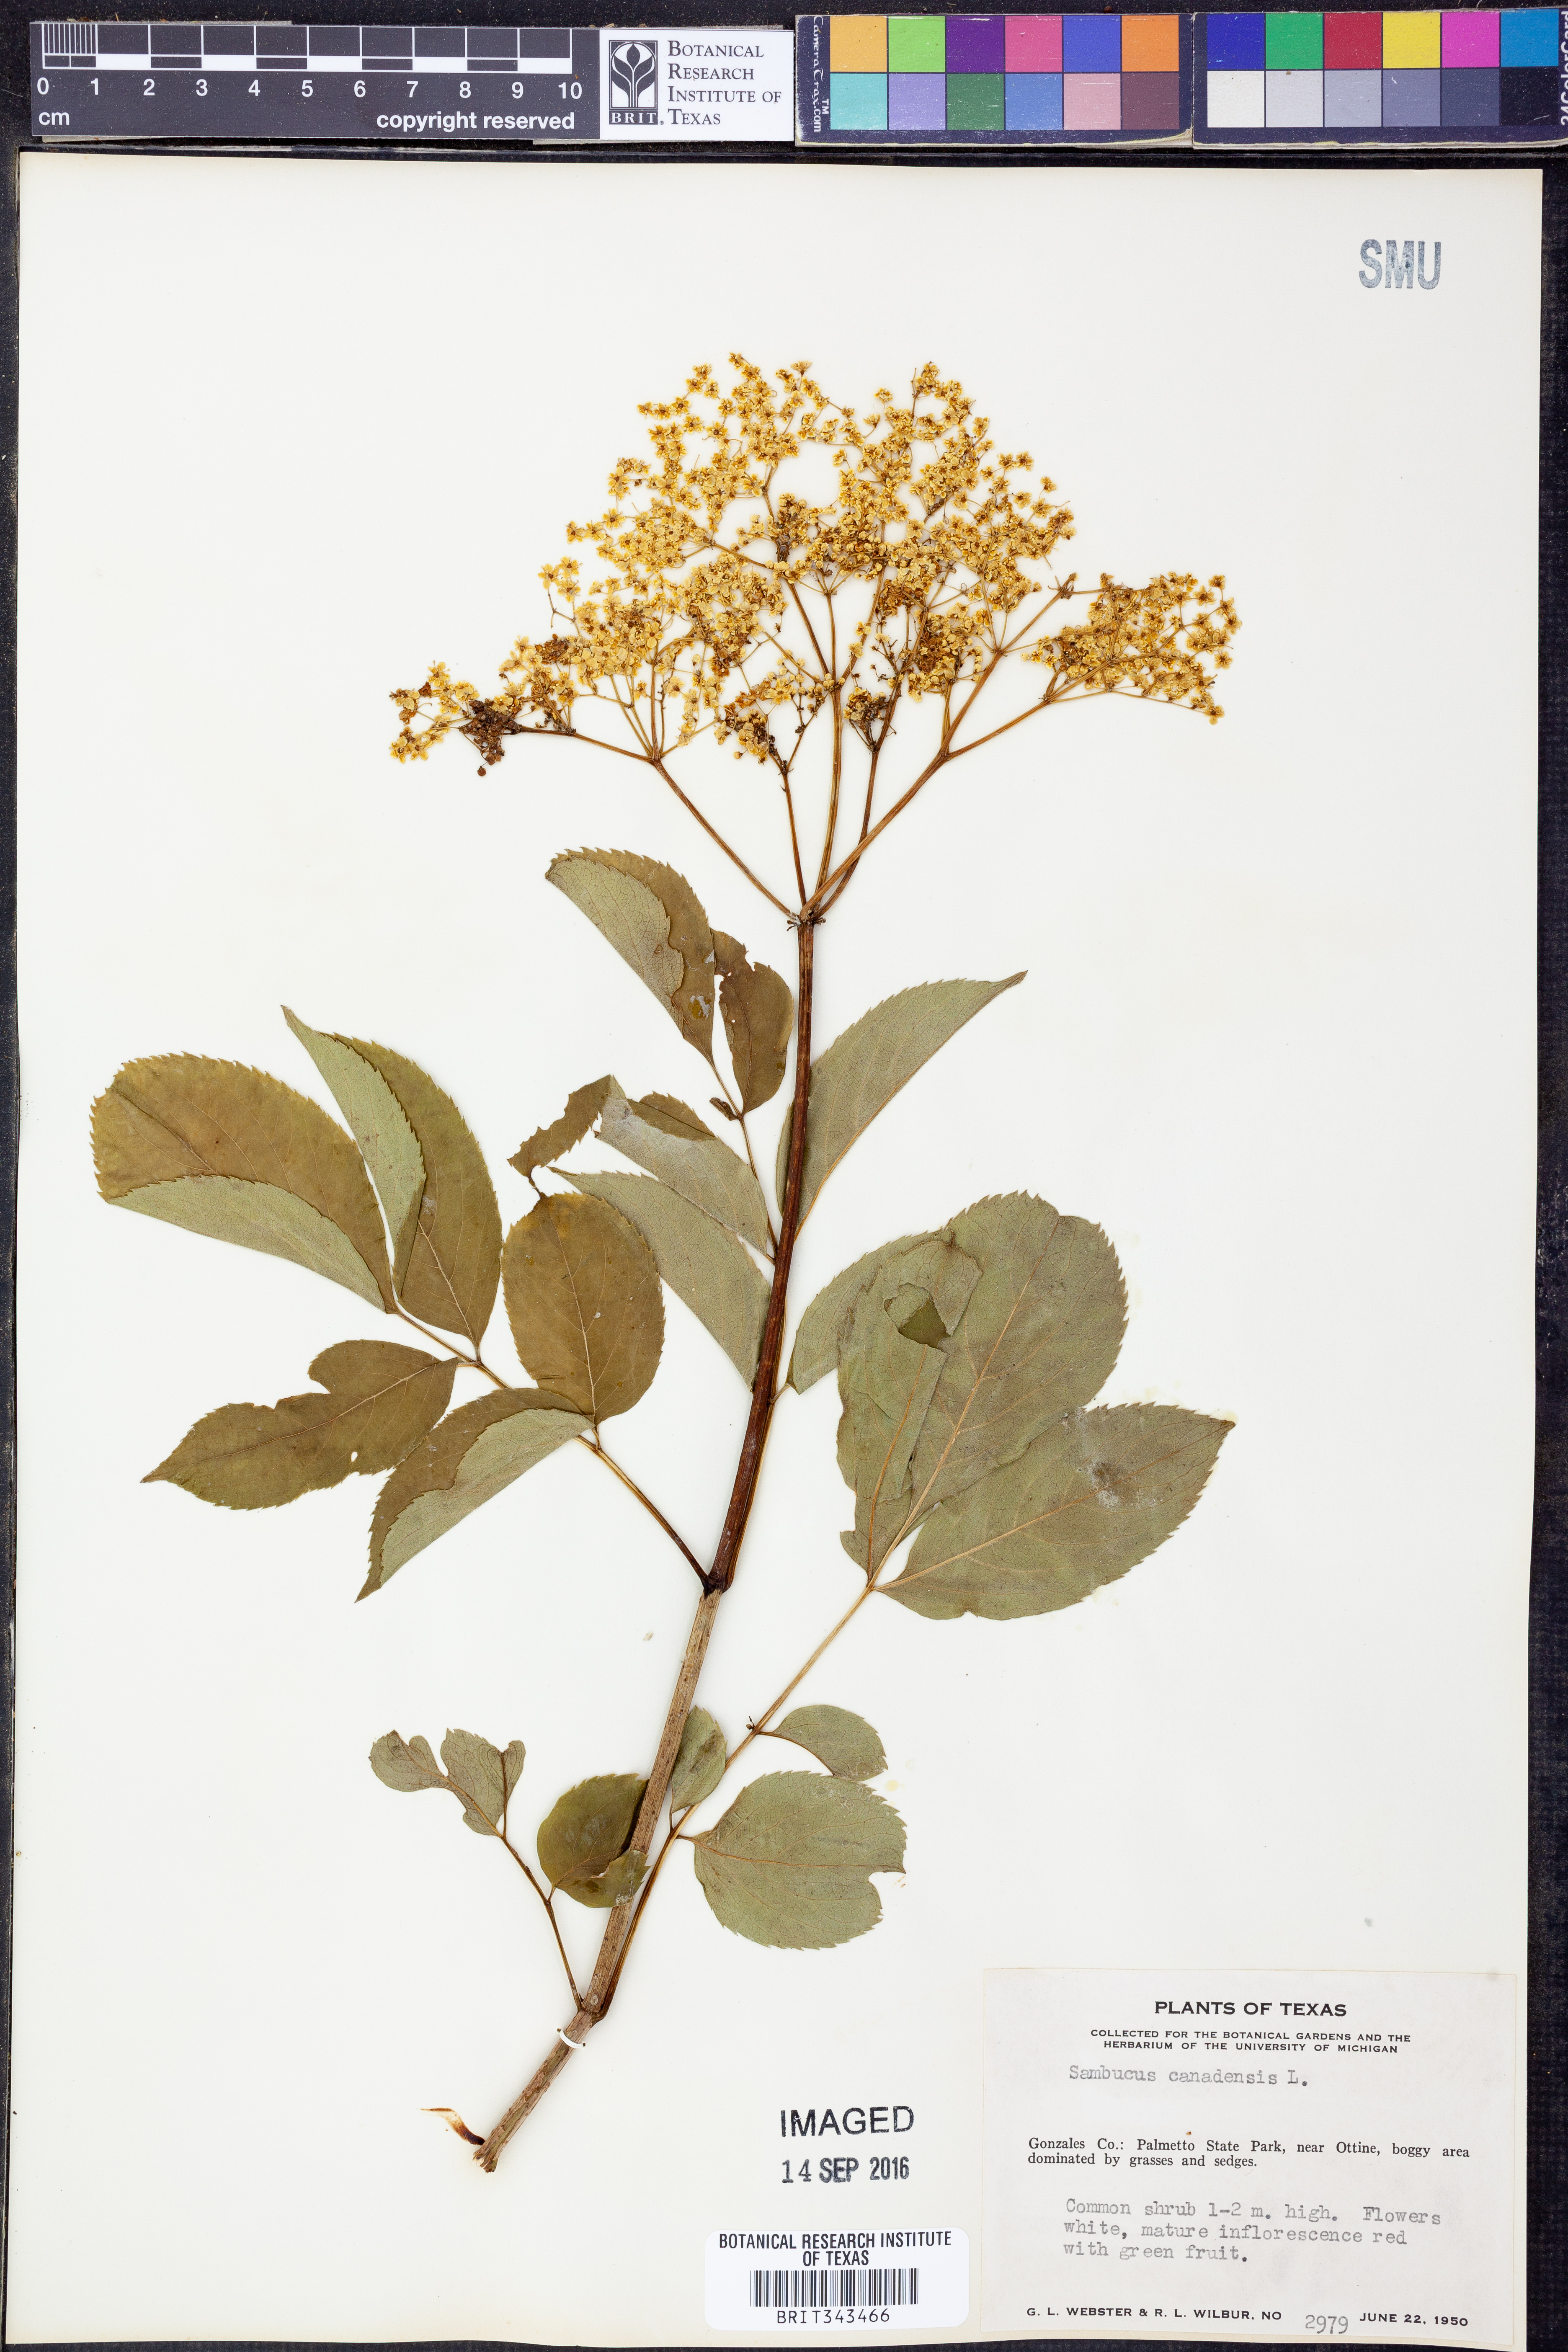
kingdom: Plantae
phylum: Tracheophyta
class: Magnoliopsida
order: Dipsacales
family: Viburnaceae
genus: Sambucus
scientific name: Sambucus canadensis
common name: American elder
